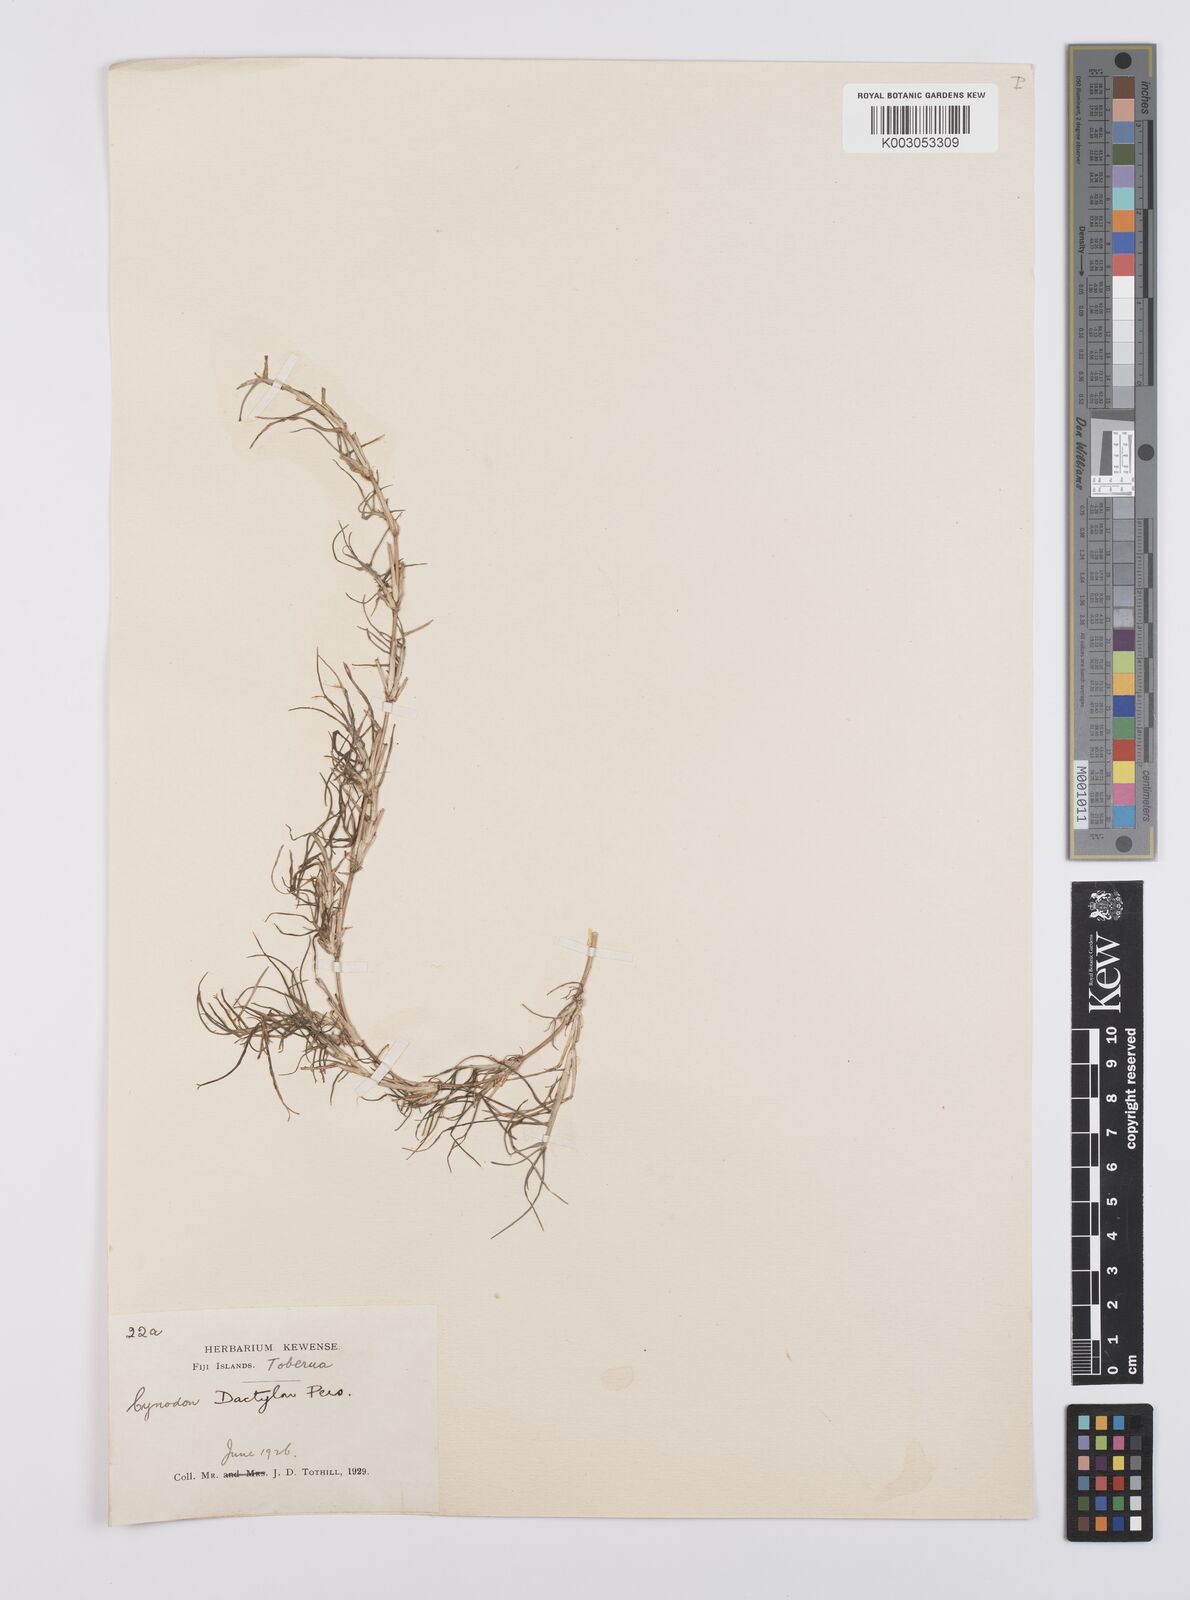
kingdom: Plantae
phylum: Tracheophyta
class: Liliopsida
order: Poales
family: Poaceae
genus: Cynodon
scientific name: Cynodon dactylon
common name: Bermuda grass
